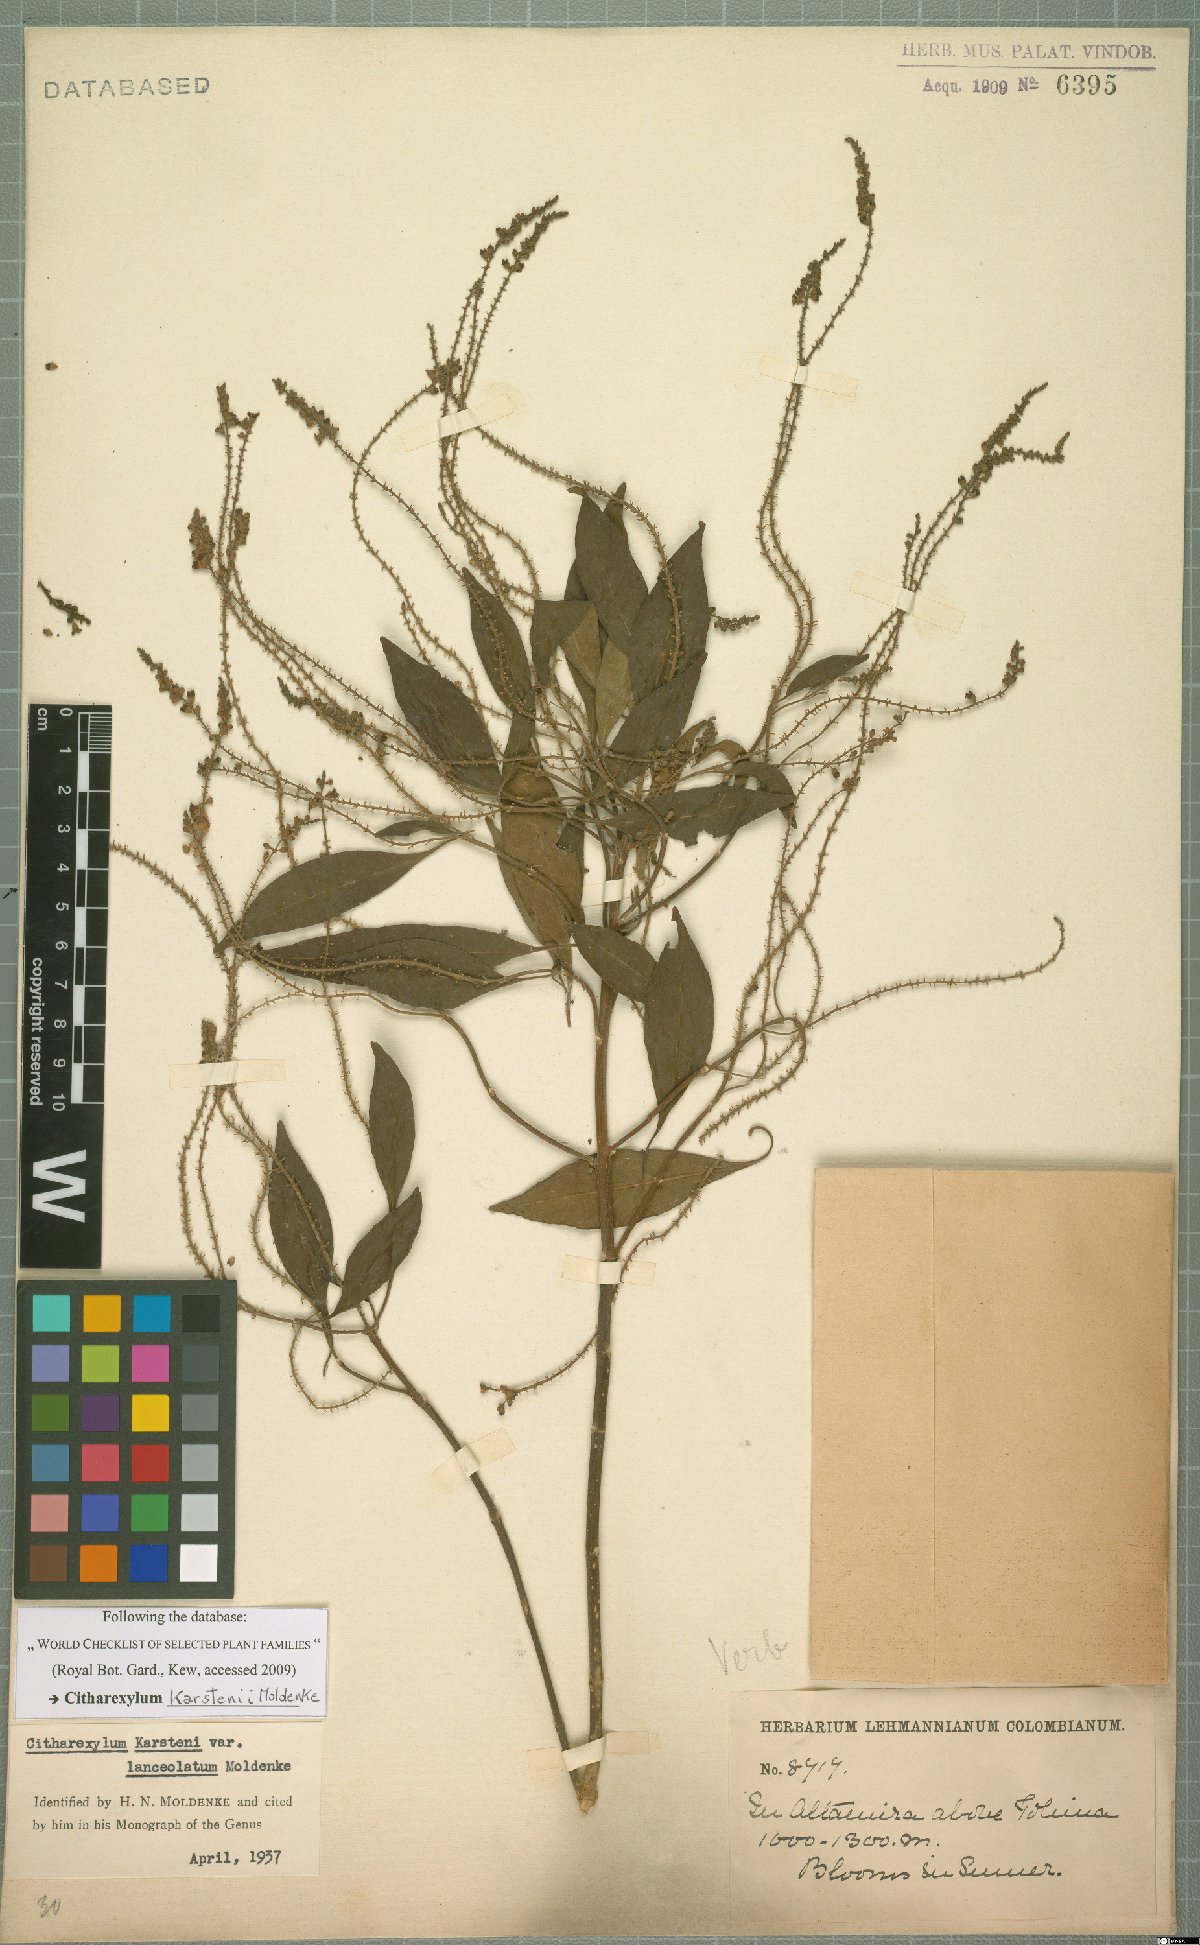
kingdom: Plantae
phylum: Tracheophyta
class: Magnoliopsida
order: Lamiales
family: Verbenaceae
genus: Citharexylum
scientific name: Citharexylum karstenii
